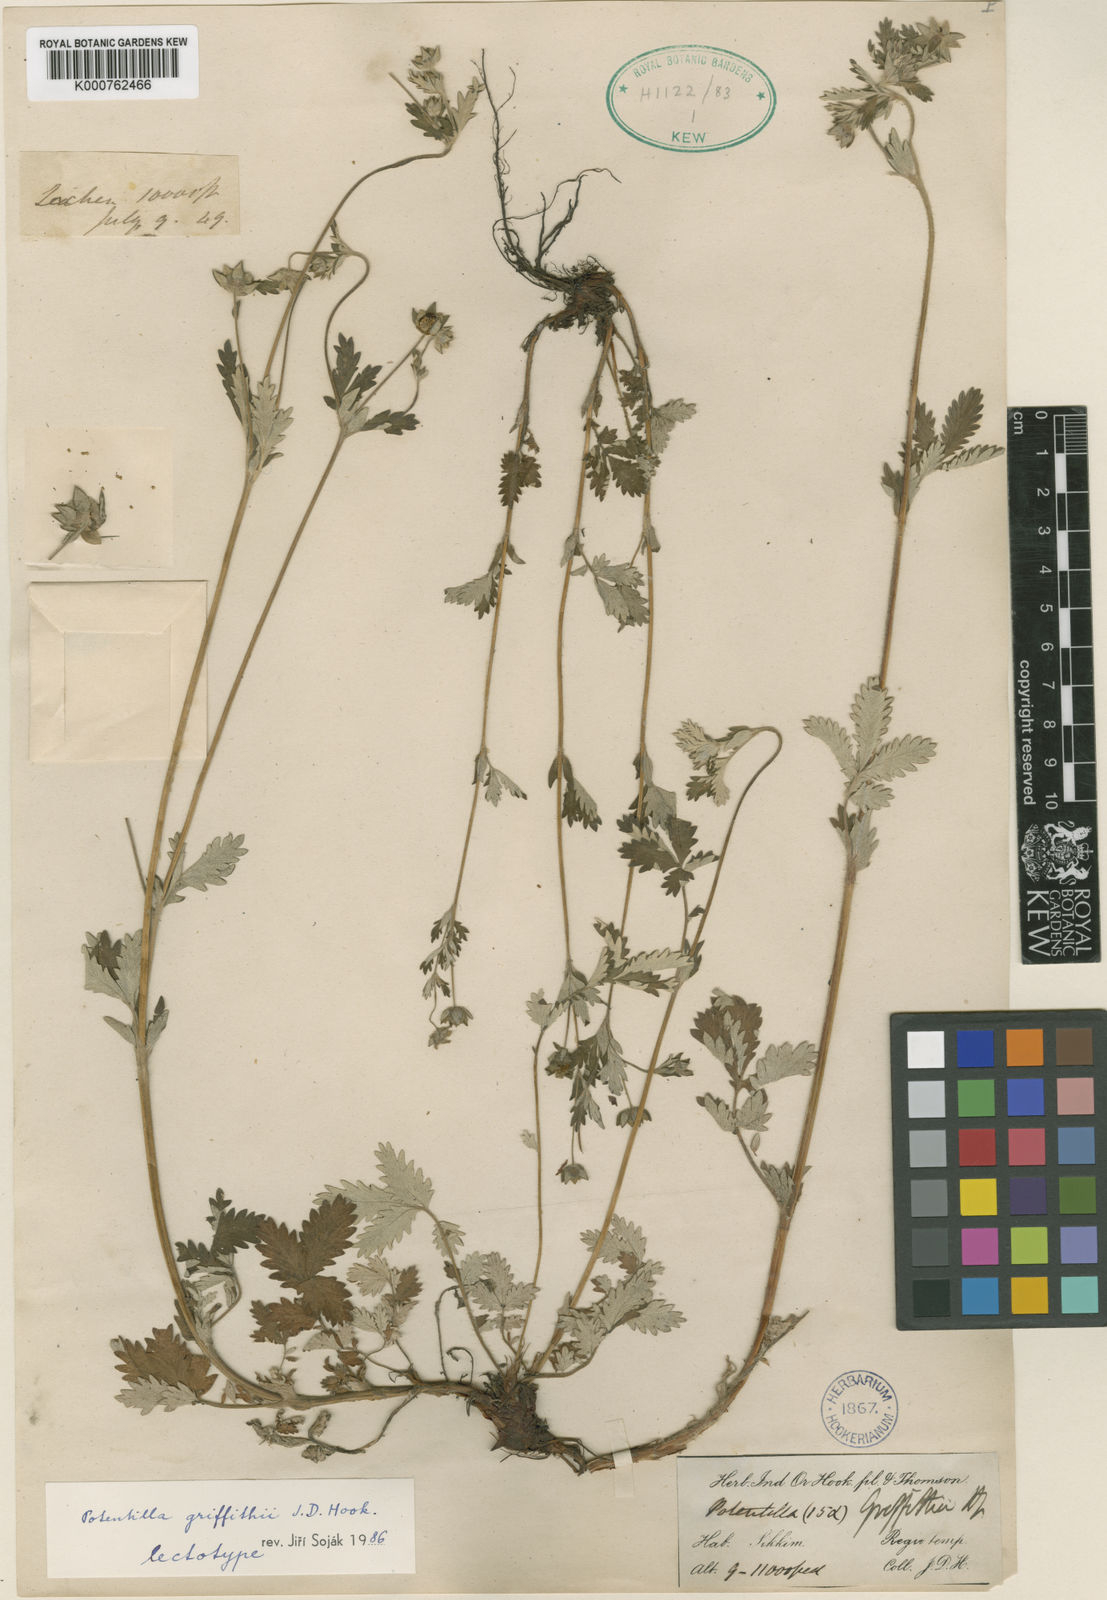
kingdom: Plantae
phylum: Tracheophyta
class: Magnoliopsida
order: Rosales
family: Rosaceae
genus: Potentilla
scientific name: Potentilla griffithii
